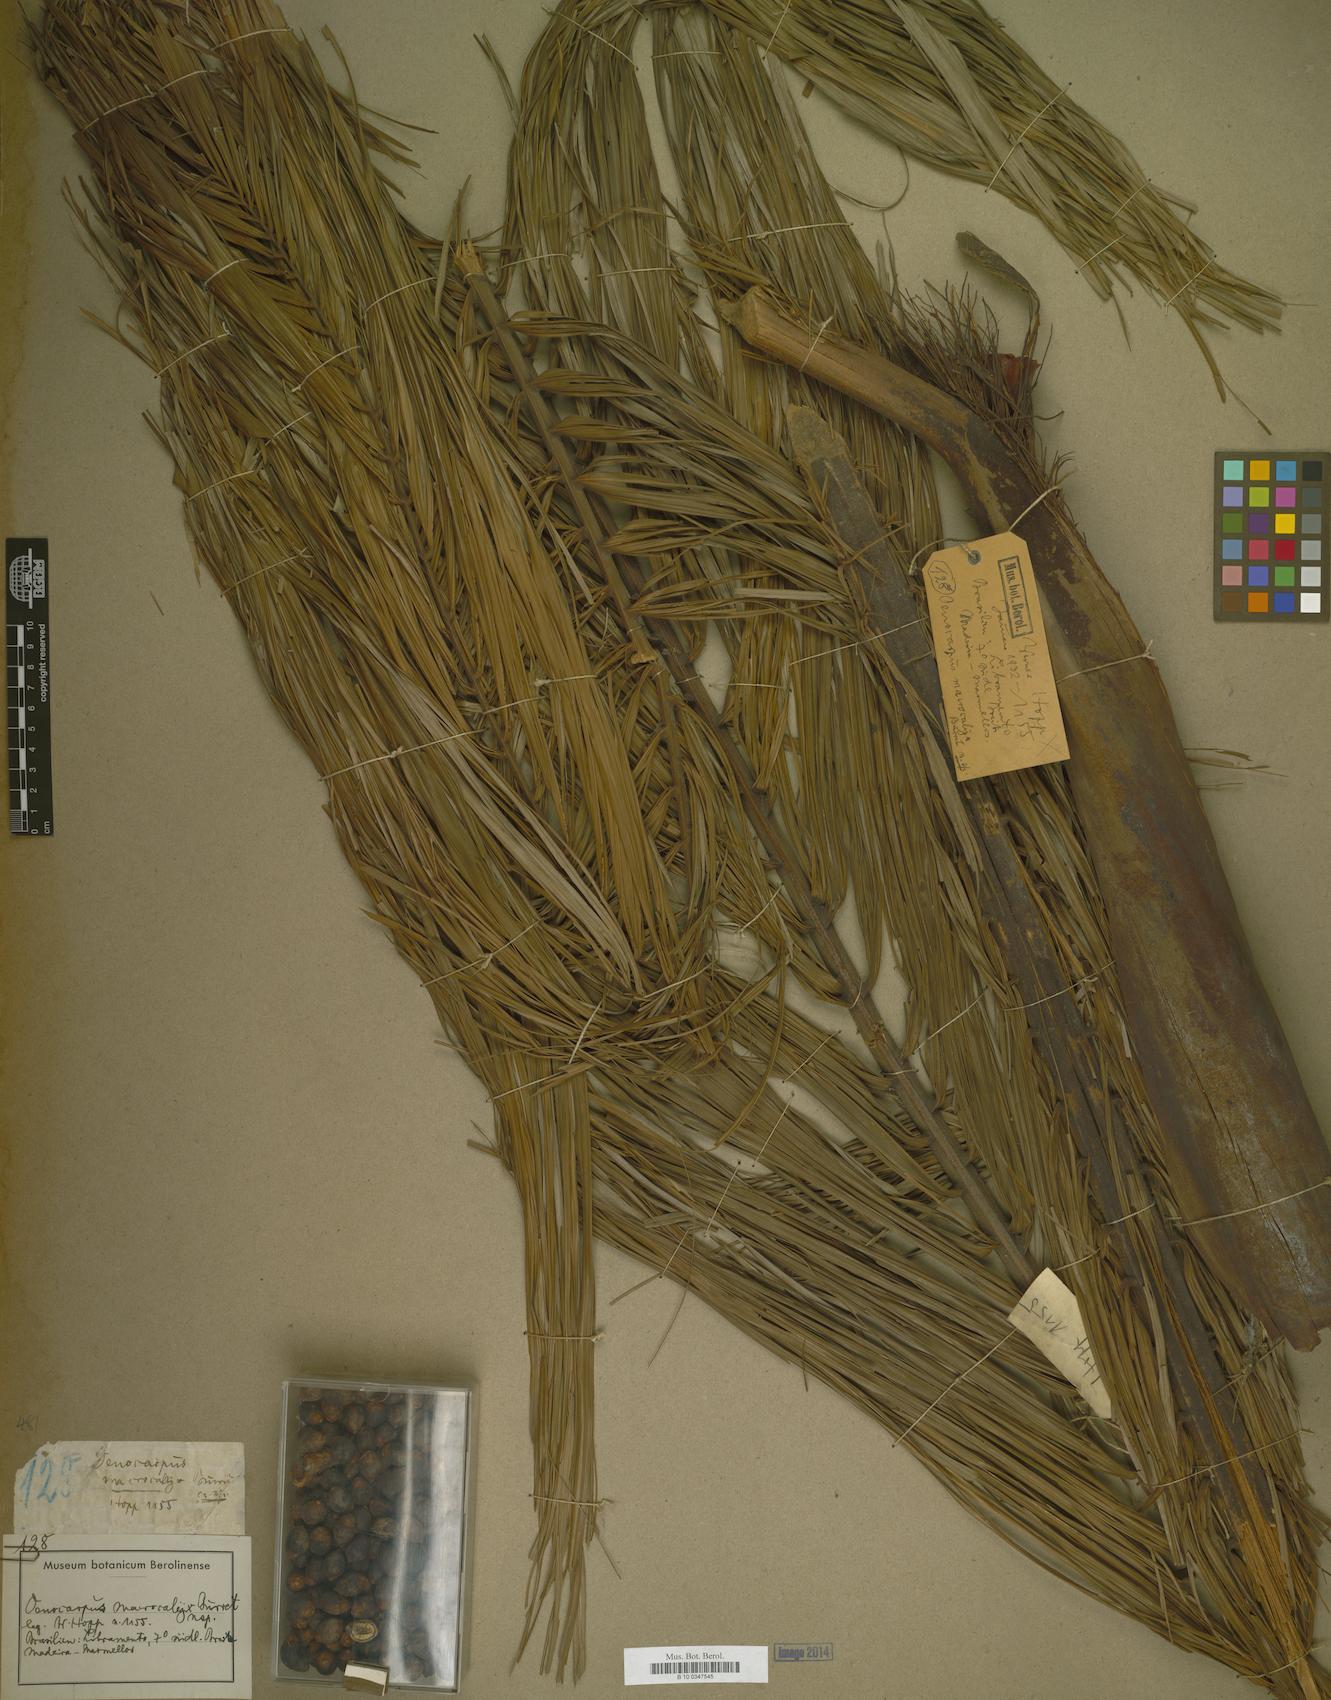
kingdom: Plantae
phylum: Tracheophyta
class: Liliopsida
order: Arecales
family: Arecaceae
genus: Oenocarpus
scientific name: Oenocarpus mapora
